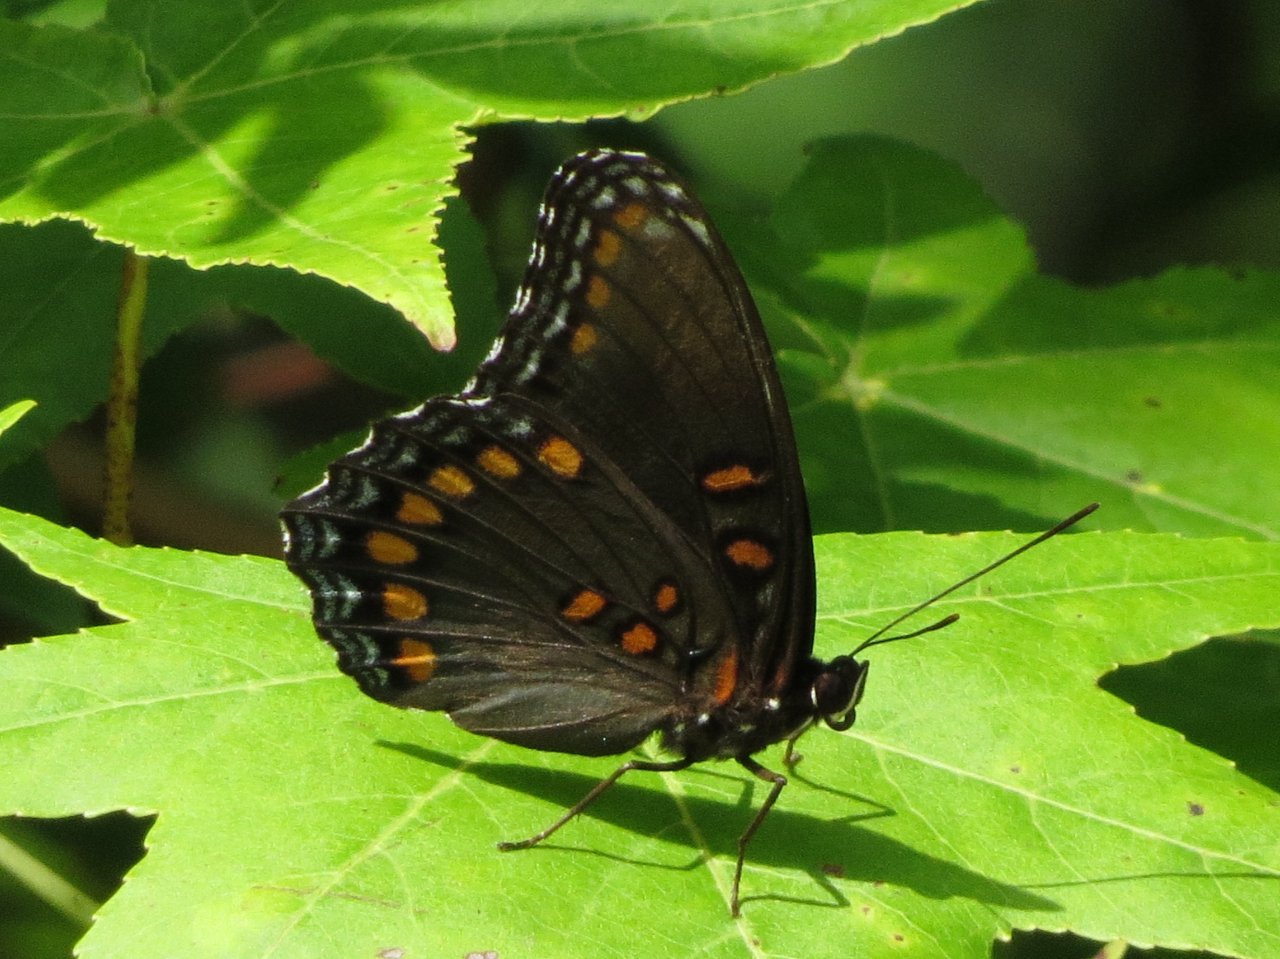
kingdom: Animalia
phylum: Arthropoda
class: Insecta
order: Lepidoptera
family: Nymphalidae
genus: Limenitis
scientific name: Limenitis astyanax
